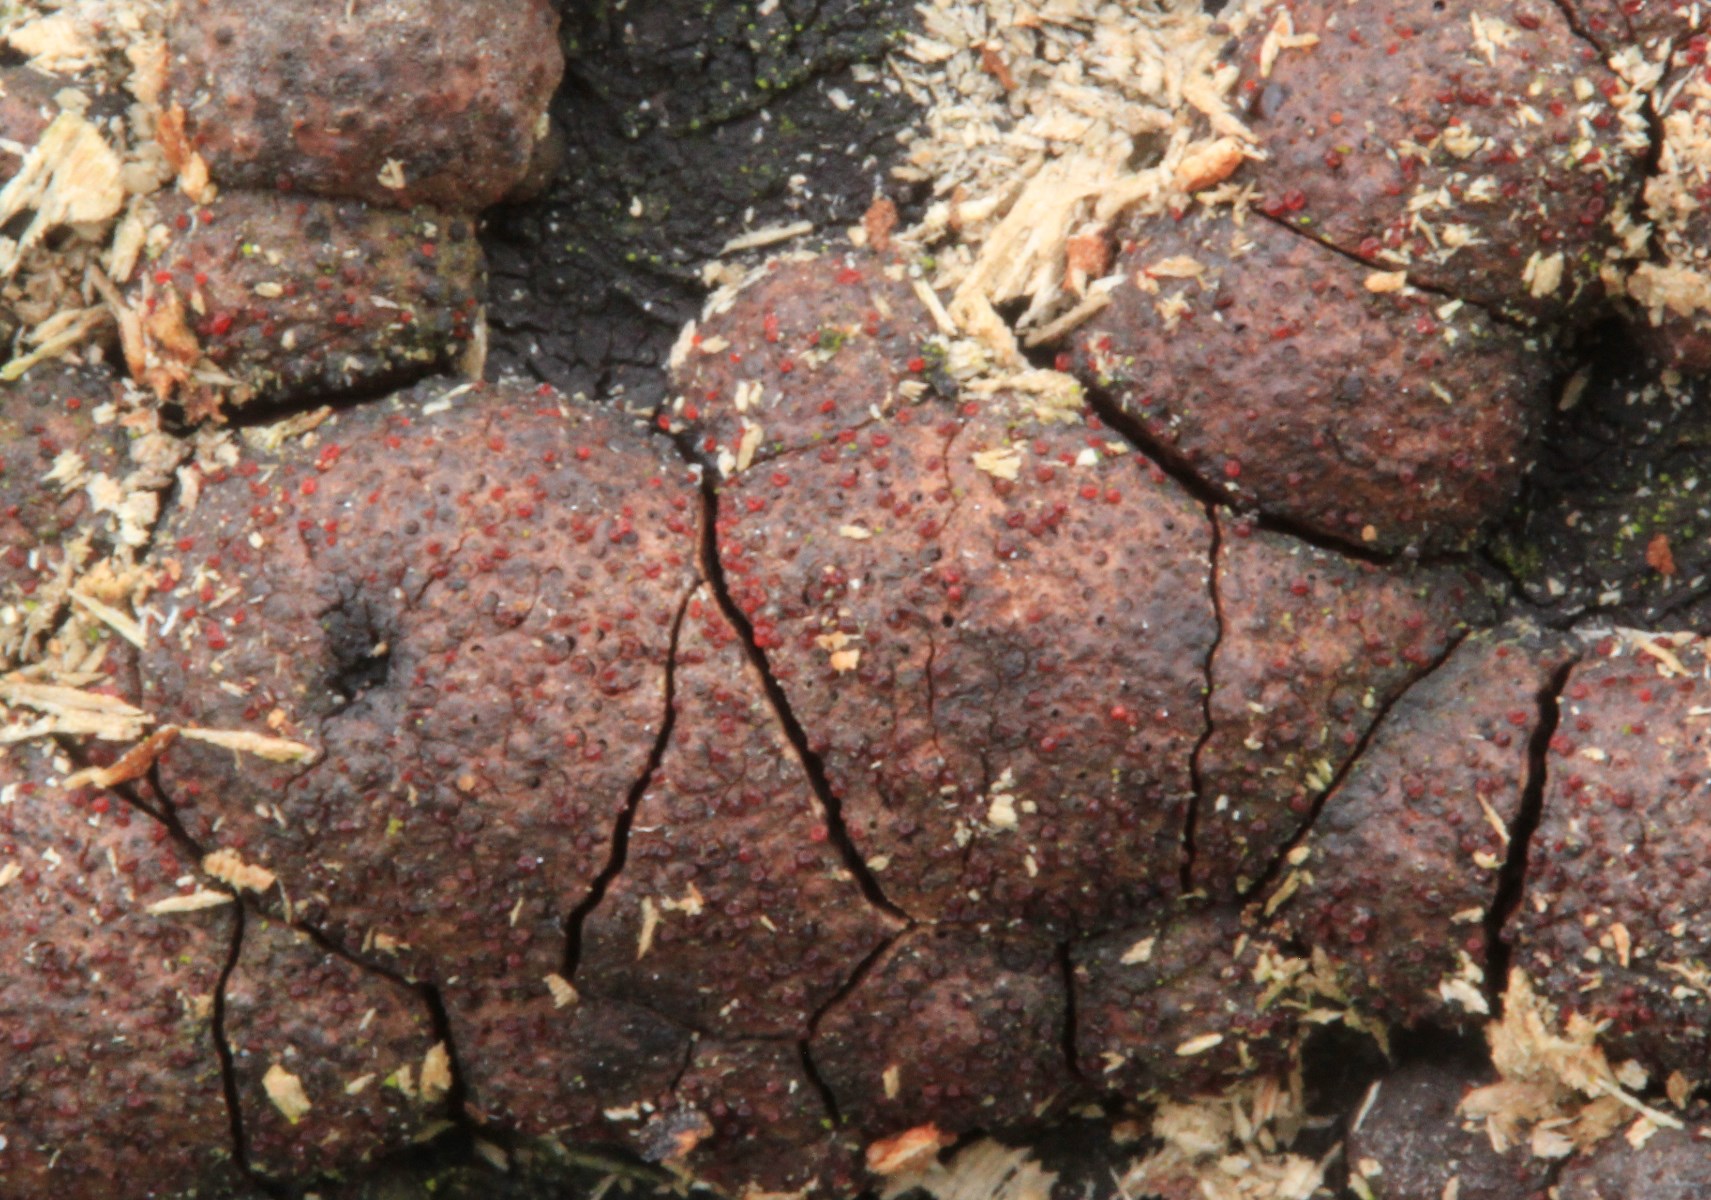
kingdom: Fungi
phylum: Ascomycota
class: Sordariomycetes
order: Hypocreales
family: Nectriaceae
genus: Cosmospora
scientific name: Cosmospora arxii
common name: kuljordbær-cinnobersvamp
